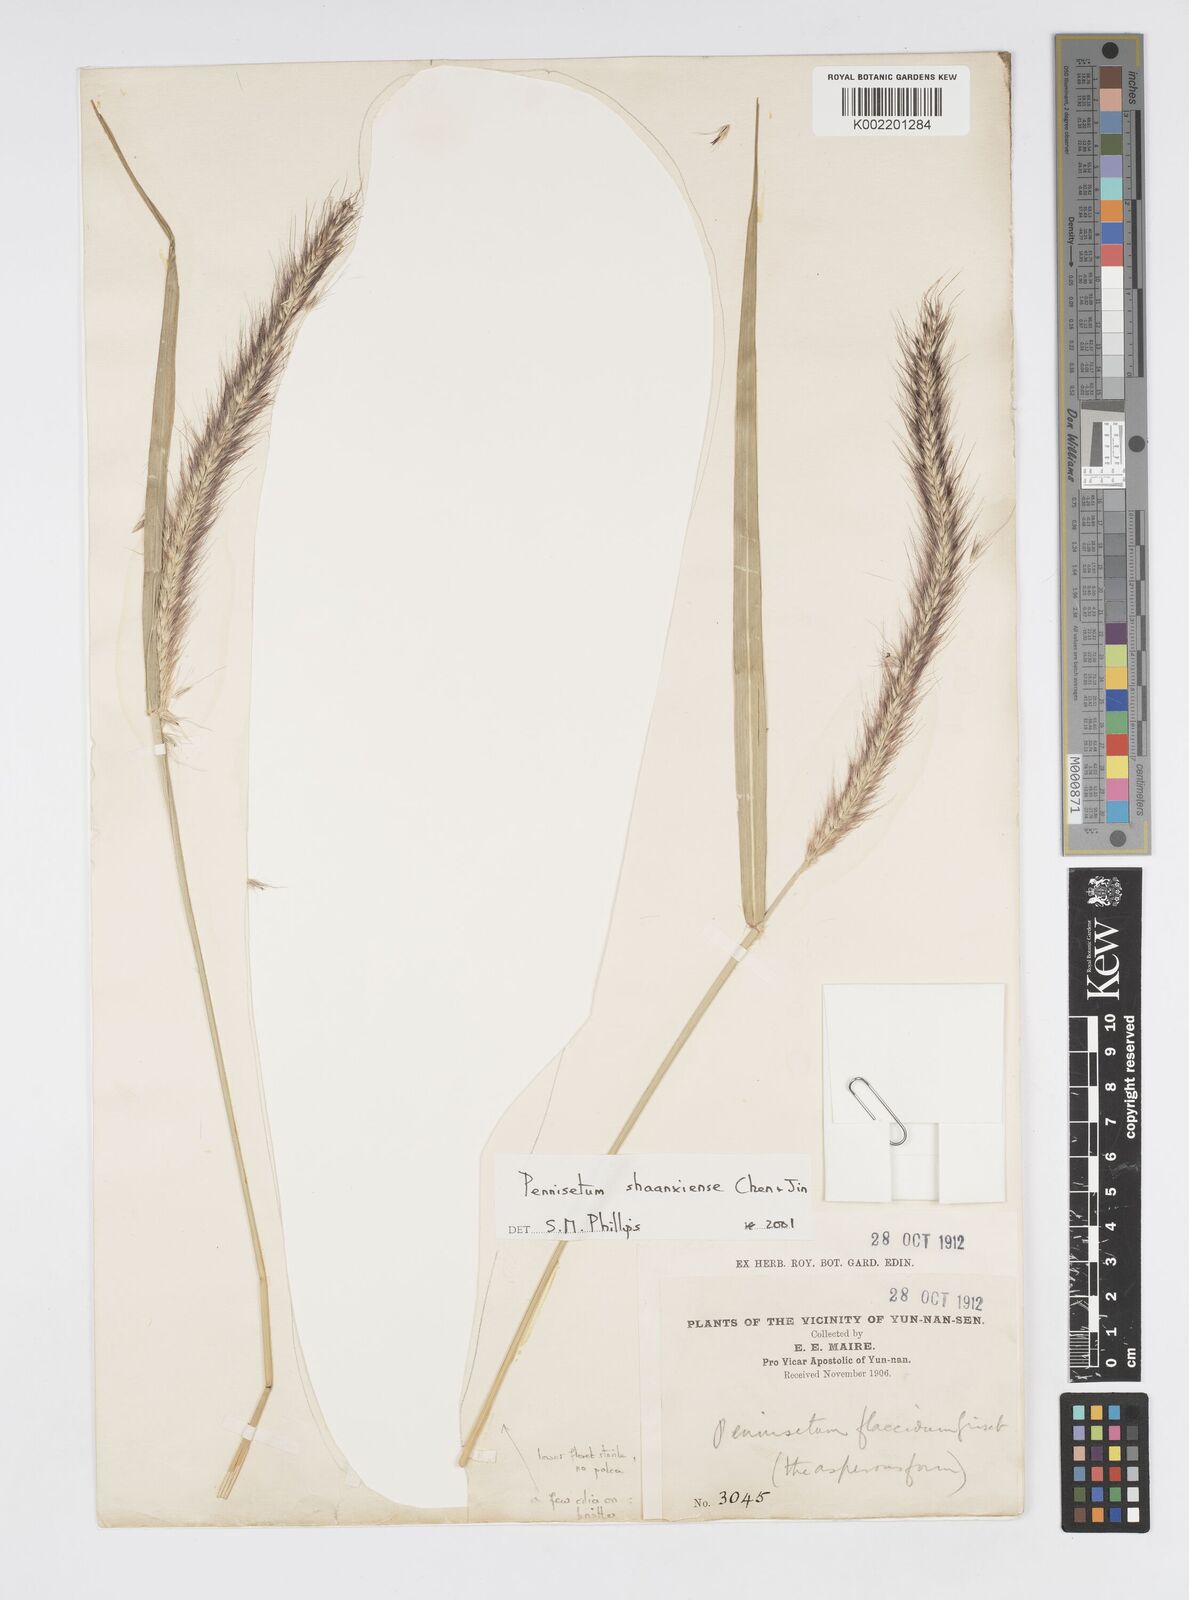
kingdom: Plantae
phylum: Tracheophyta
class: Liliopsida
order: Poales
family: Poaceae
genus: Cenchrus
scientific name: Cenchrus shaanxiensis
